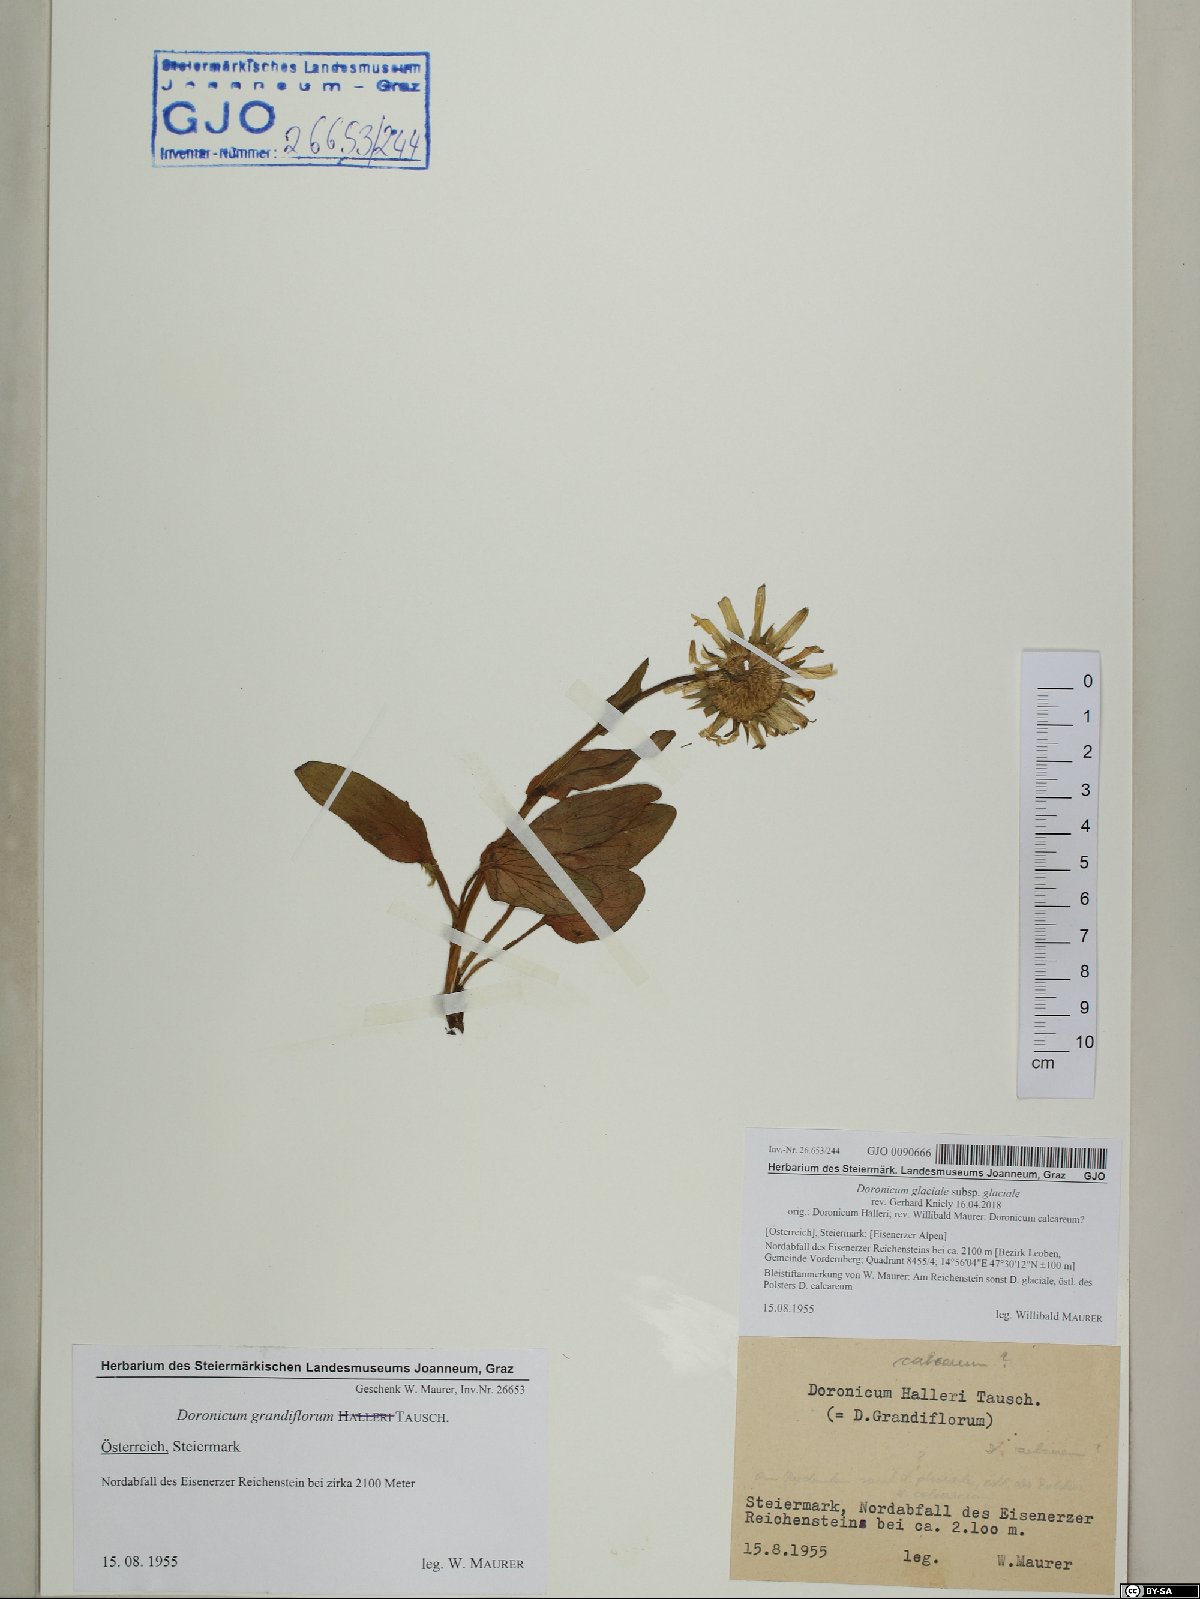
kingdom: Plantae
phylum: Tracheophyta
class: Magnoliopsida
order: Asterales
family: Asteraceae
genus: Doronicum
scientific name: Doronicum glaciale
